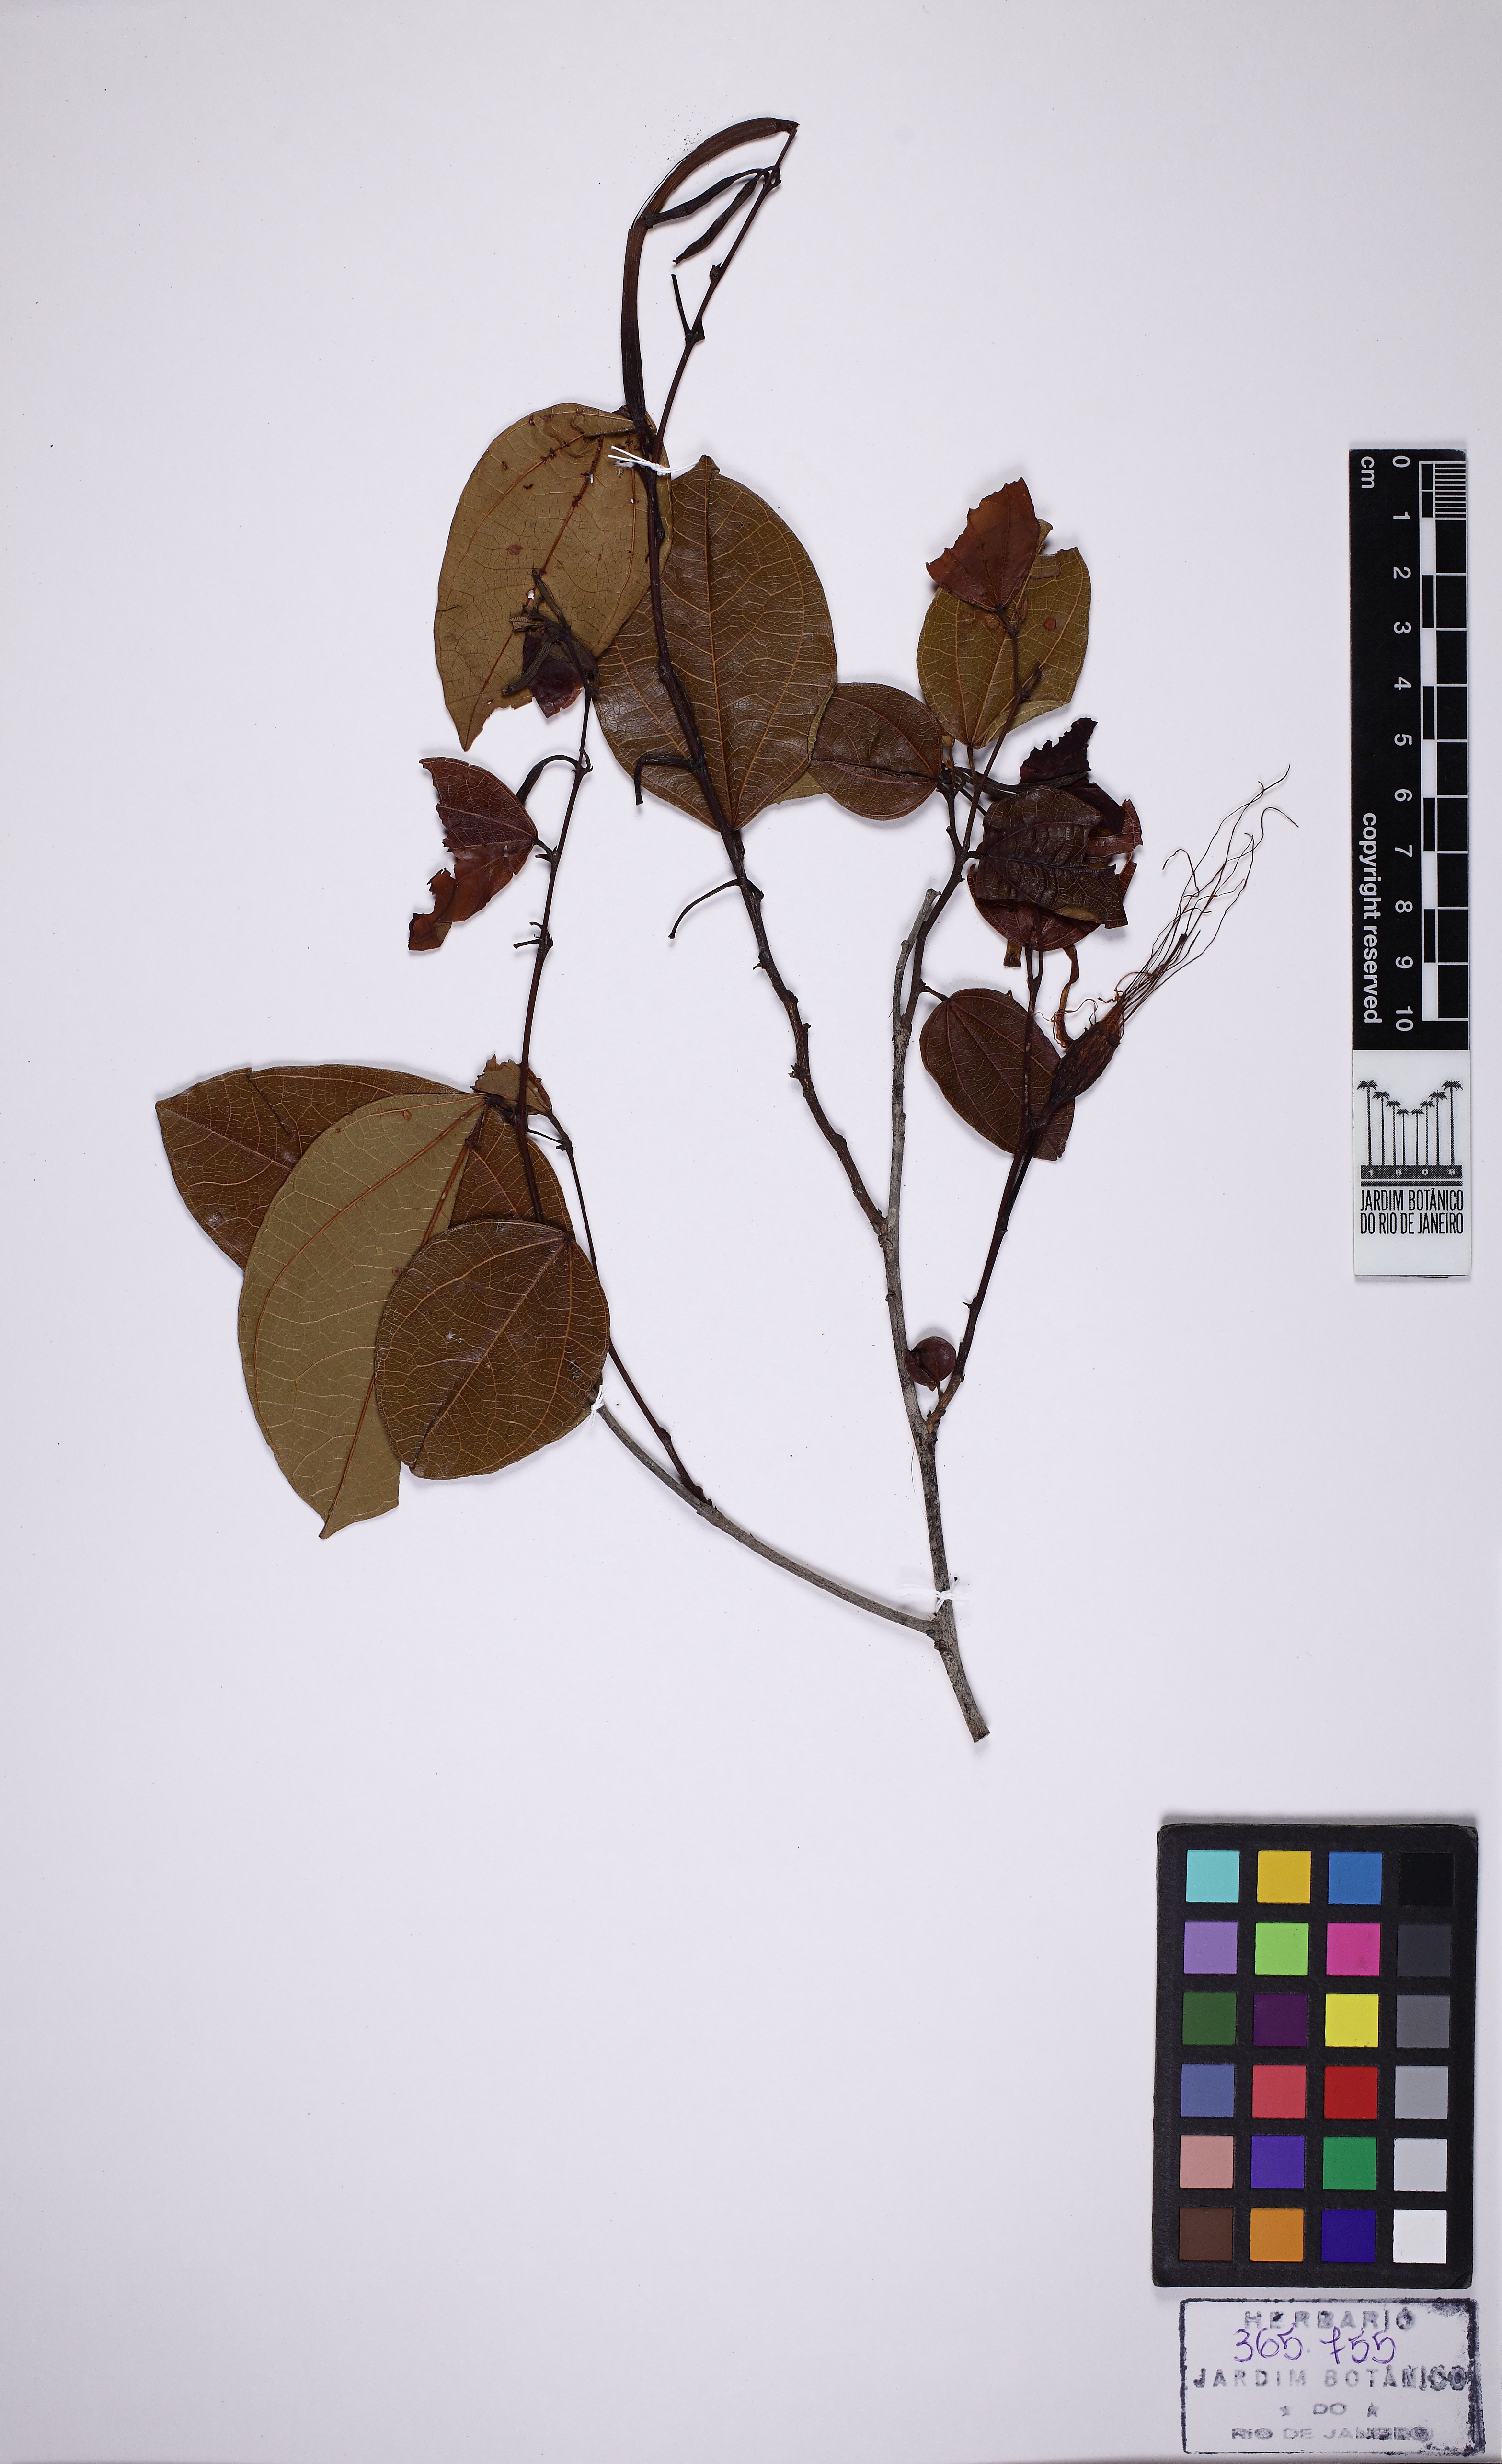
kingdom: Plantae
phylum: Tracheophyta
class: Magnoliopsida
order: Fabales
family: Fabaceae
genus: Bauhinia
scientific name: Bauhinia dubia
